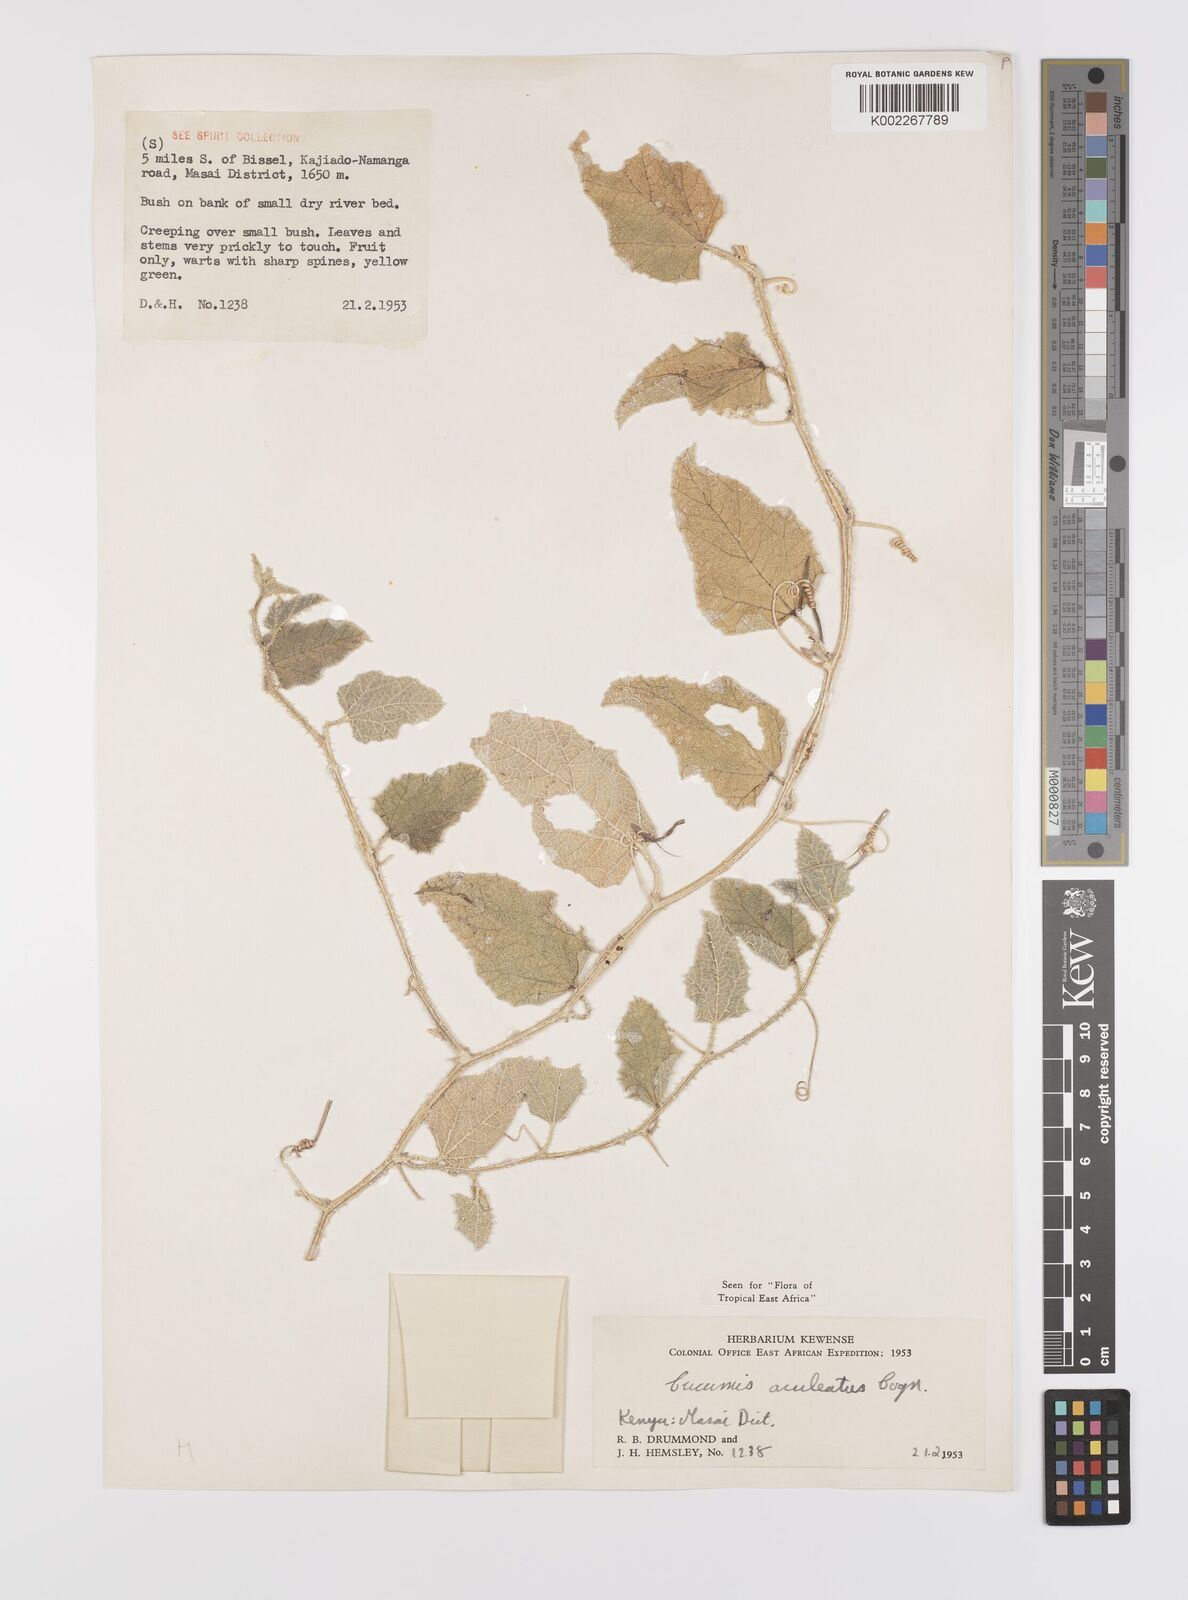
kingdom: Plantae
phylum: Tracheophyta
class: Magnoliopsida
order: Cucurbitales
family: Cucurbitaceae
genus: Cucumis
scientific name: Cucumis aculeatus
